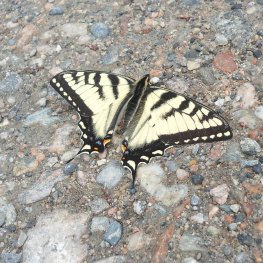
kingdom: Animalia
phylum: Arthropoda
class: Insecta
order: Lepidoptera
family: Papilionidae
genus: Pterourus
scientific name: Pterourus canadensis
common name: Canadian Tiger Swallowtail
